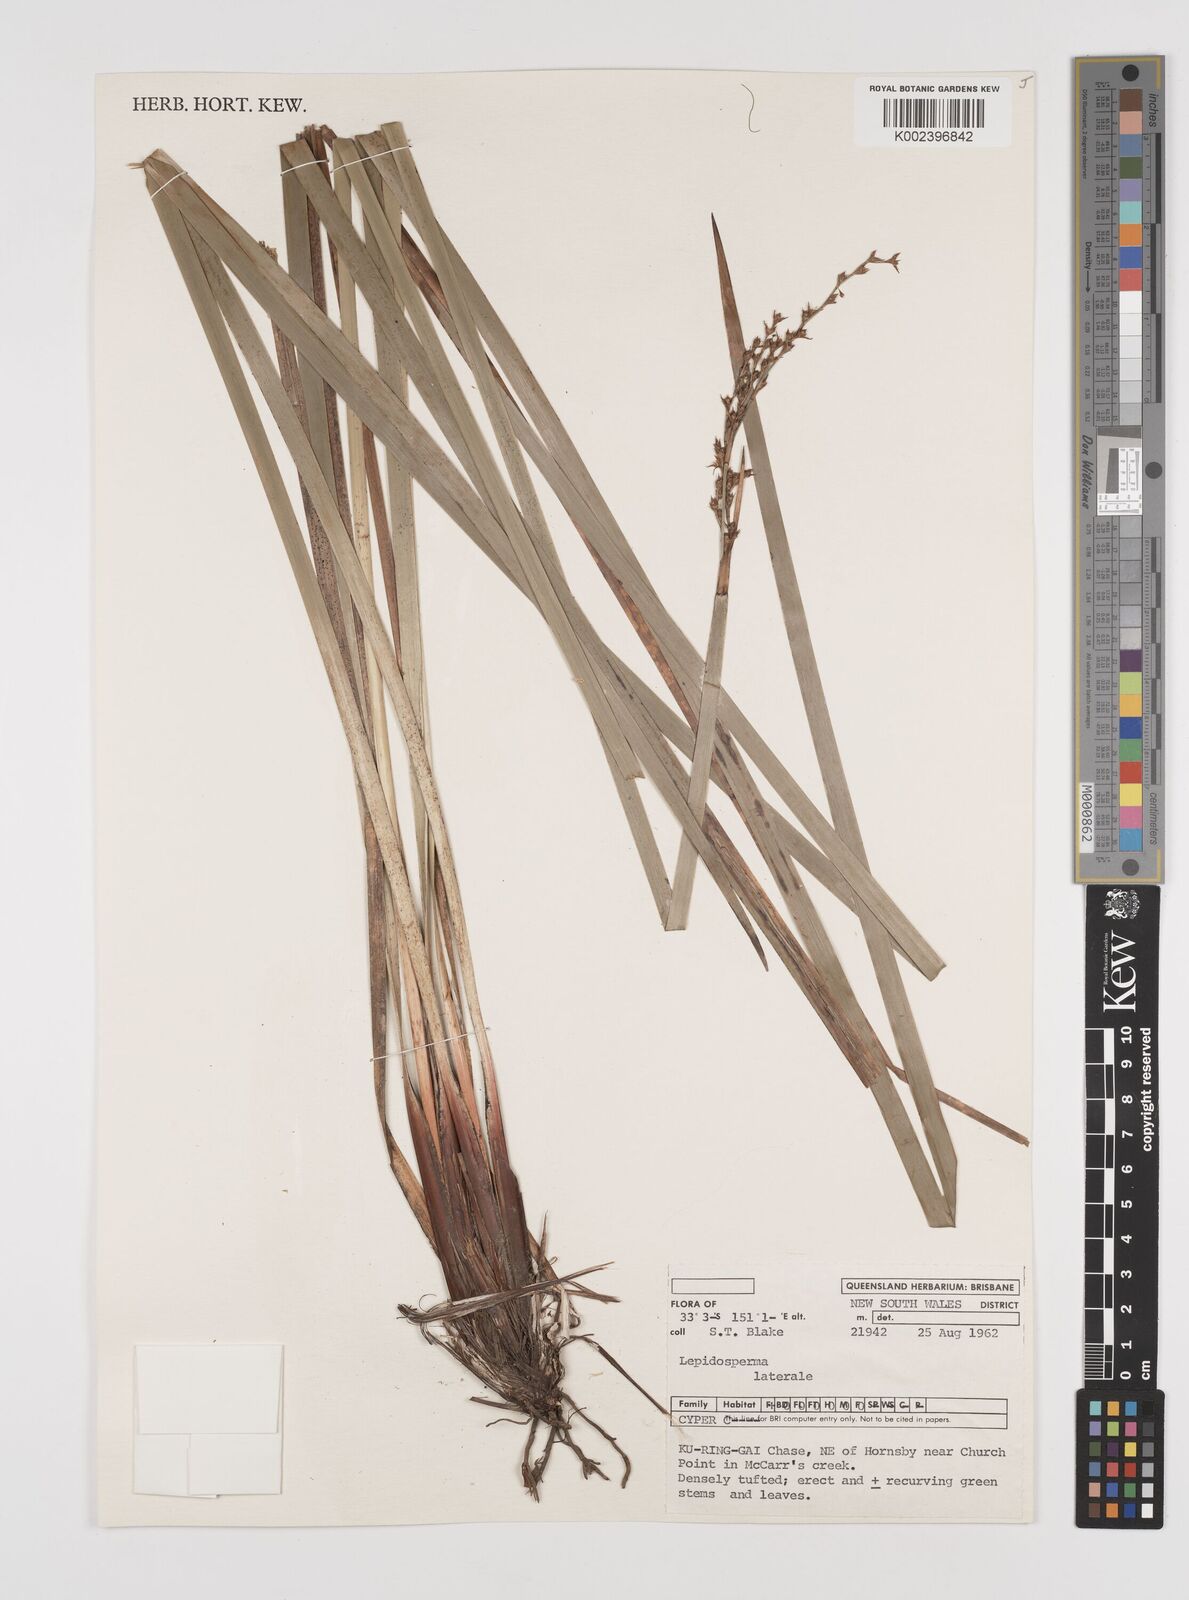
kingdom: Plantae
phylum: Tracheophyta
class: Liliopsida
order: Poales
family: Cyperaceae
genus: Lepidosperma
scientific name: Lepidosperma laterale
